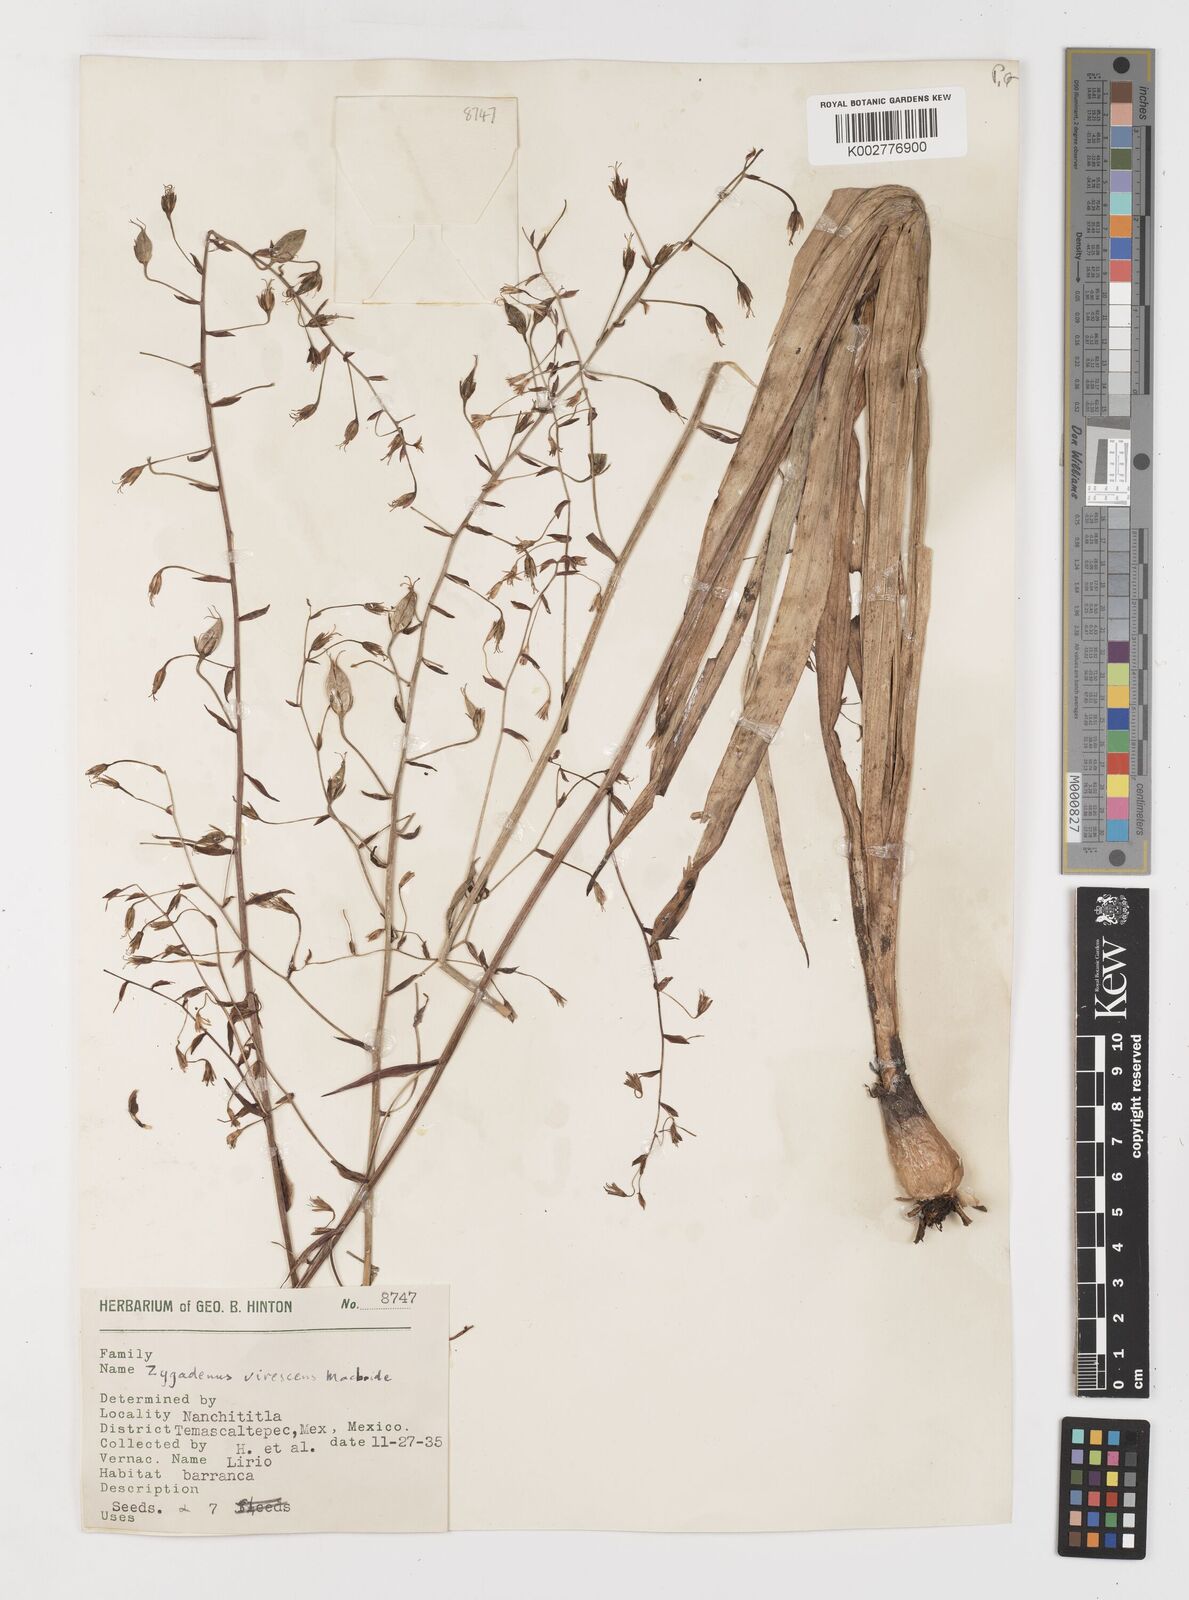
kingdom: Plantae
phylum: Tracheophyta
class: Liliopsida
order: Liliales
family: Melanthiaceae
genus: Anticlea
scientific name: Anticlea virescens
